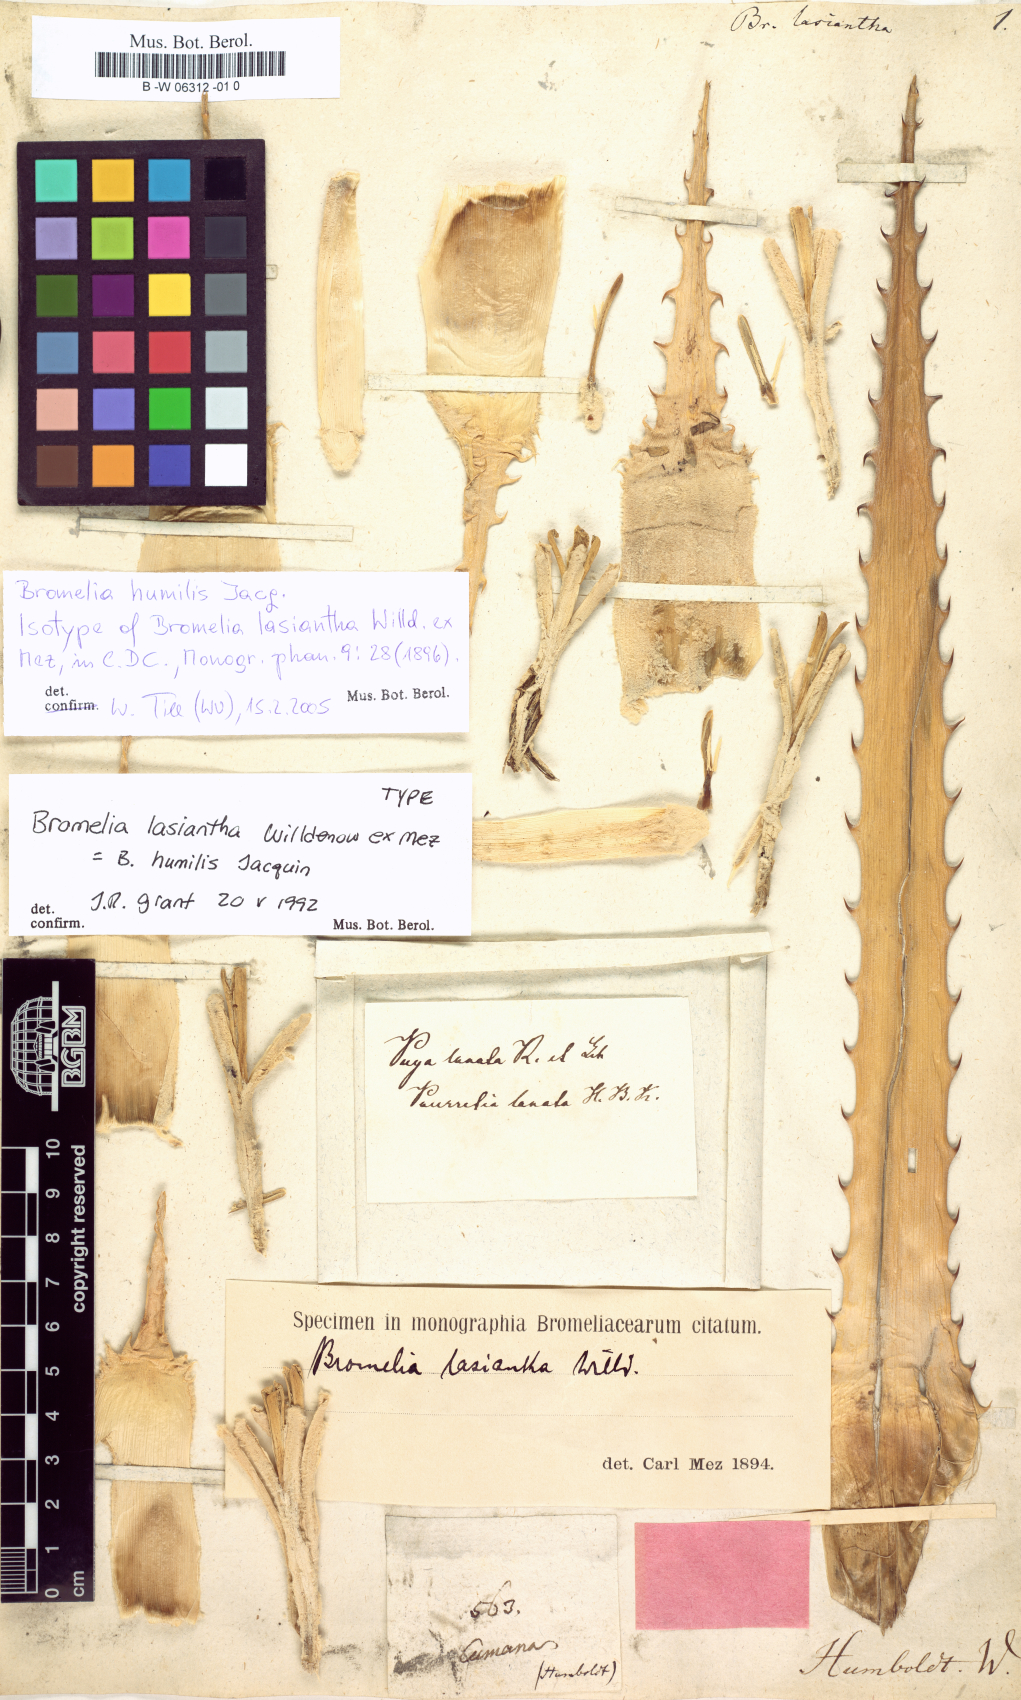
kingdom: Plantae
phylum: Tracheophyta
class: Liliopsida
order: Poales
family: Bromeliaceae
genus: Bromelia
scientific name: Bromelia humilis
